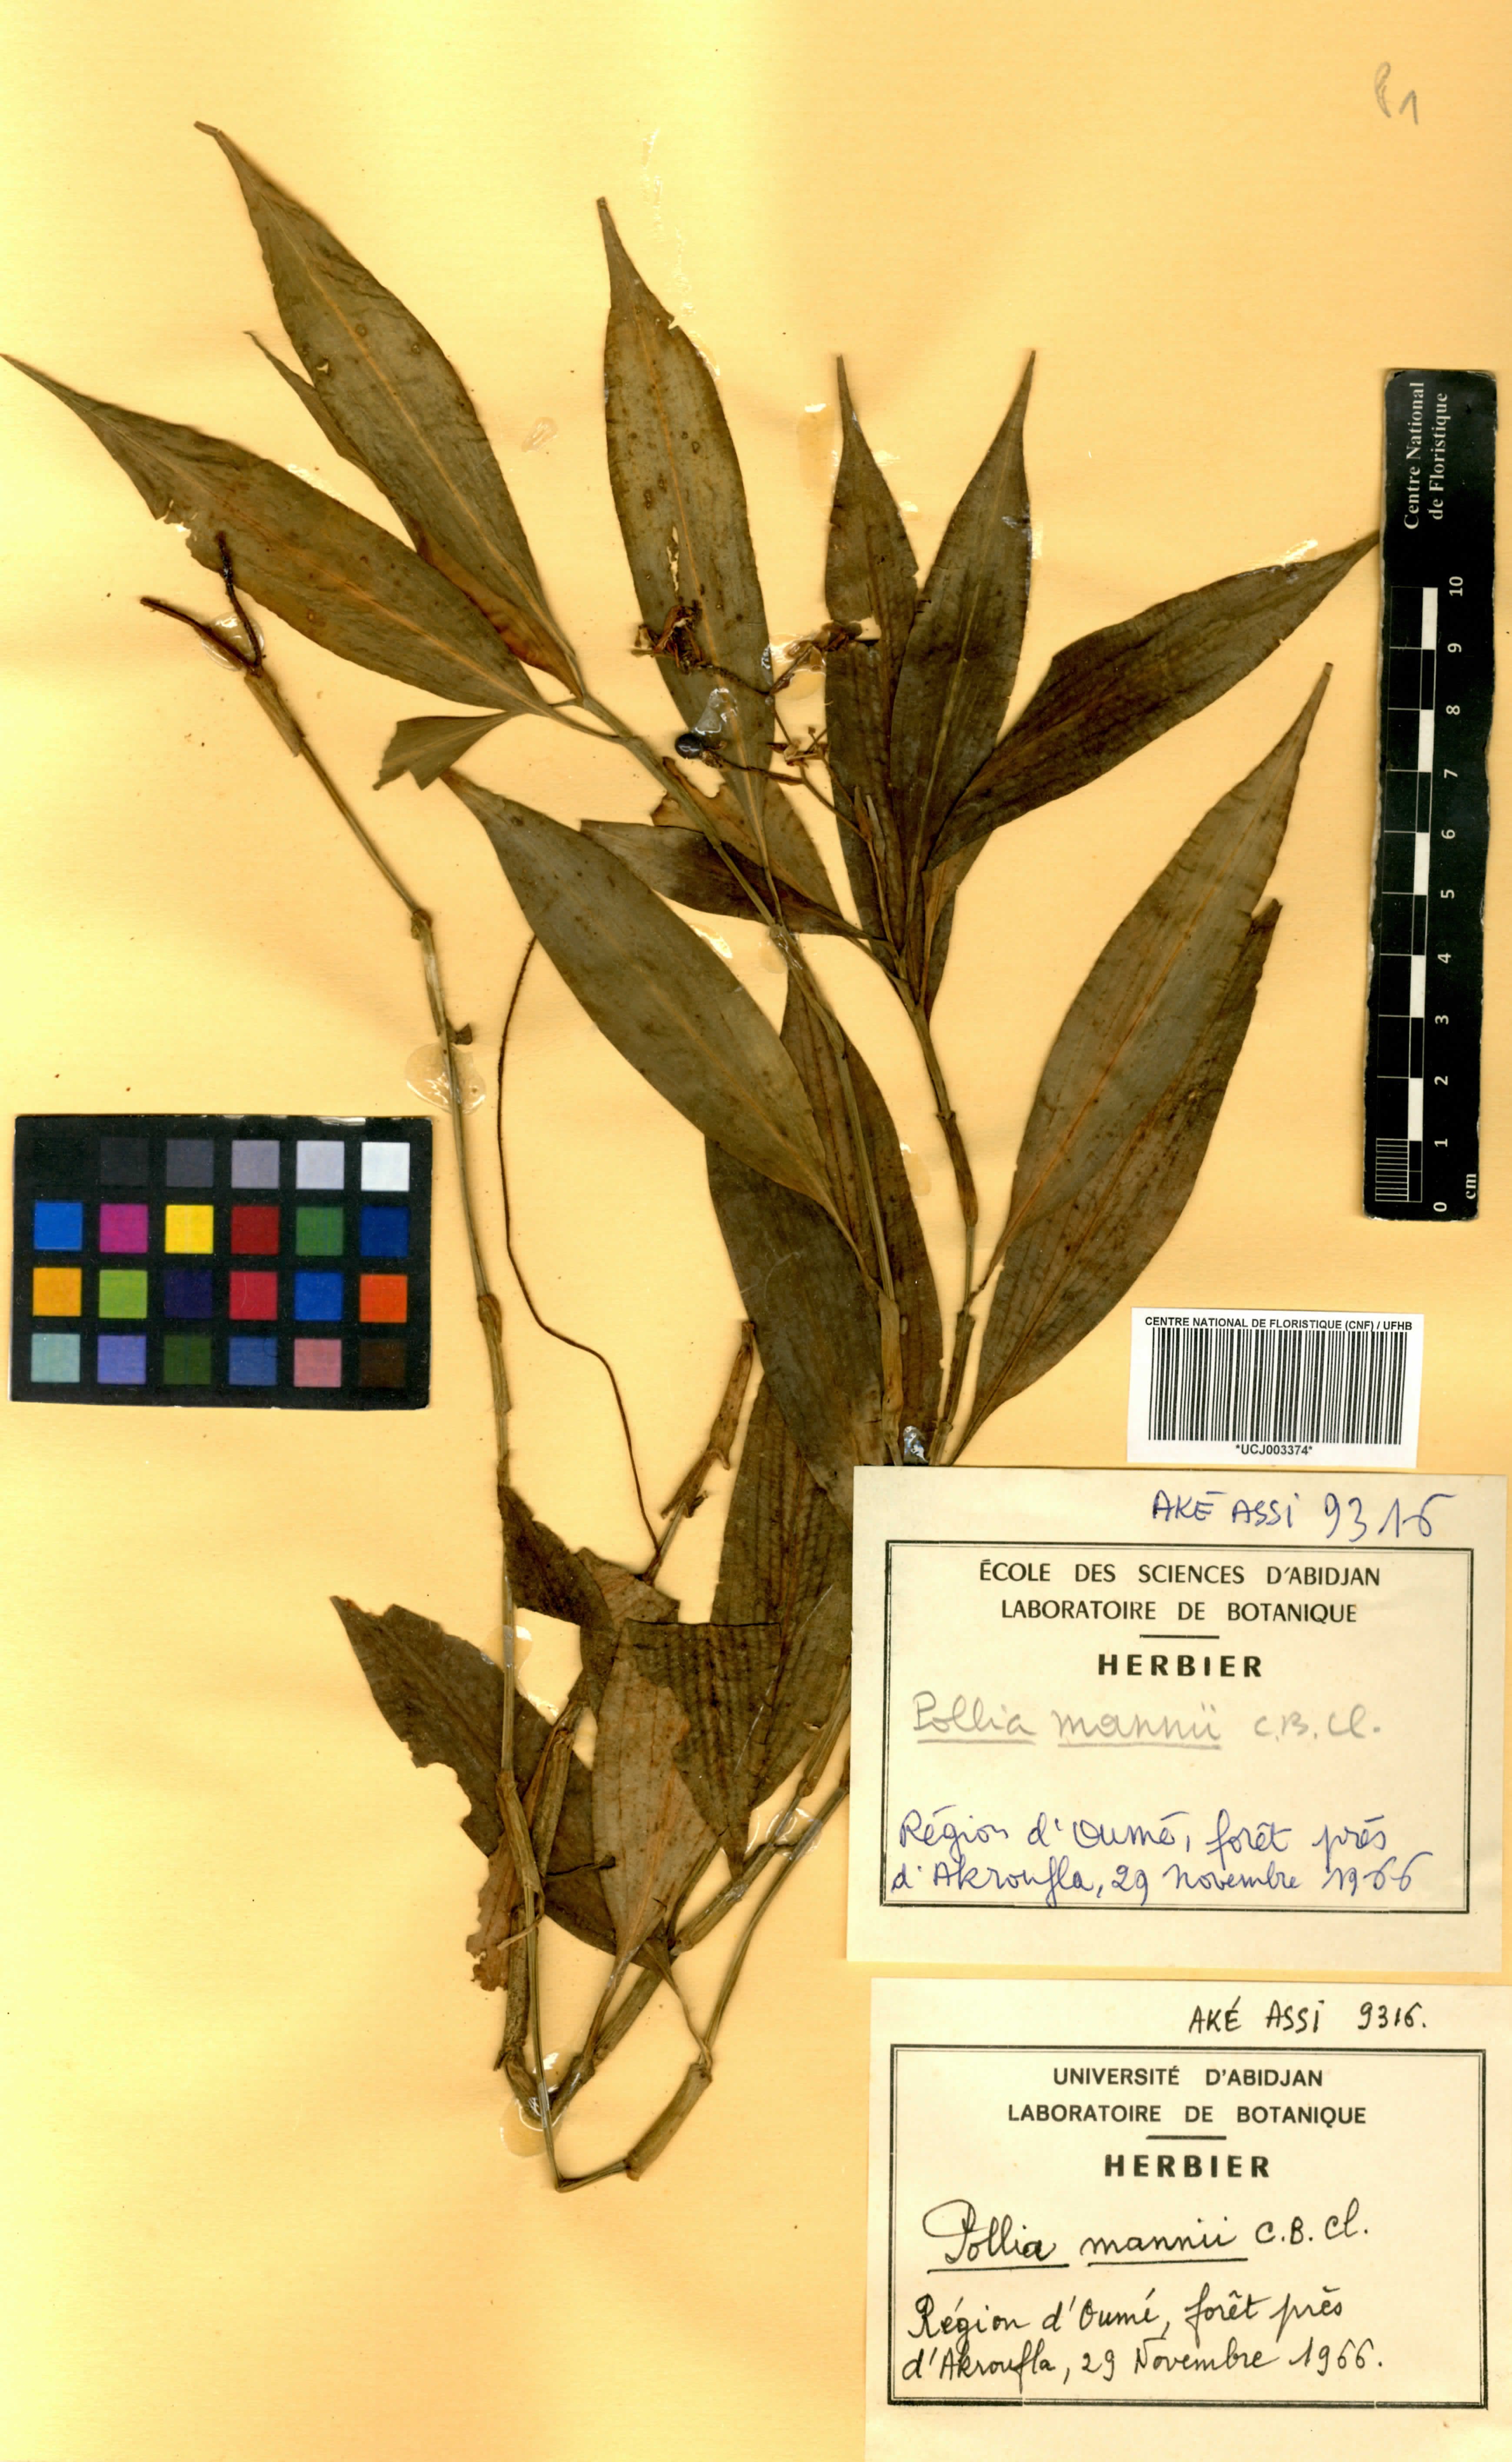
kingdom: Plantae
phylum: Tracheophyta
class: Liliopsida
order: Commelinales
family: Commelinaceae
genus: Pollia
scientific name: Pollia mannii
